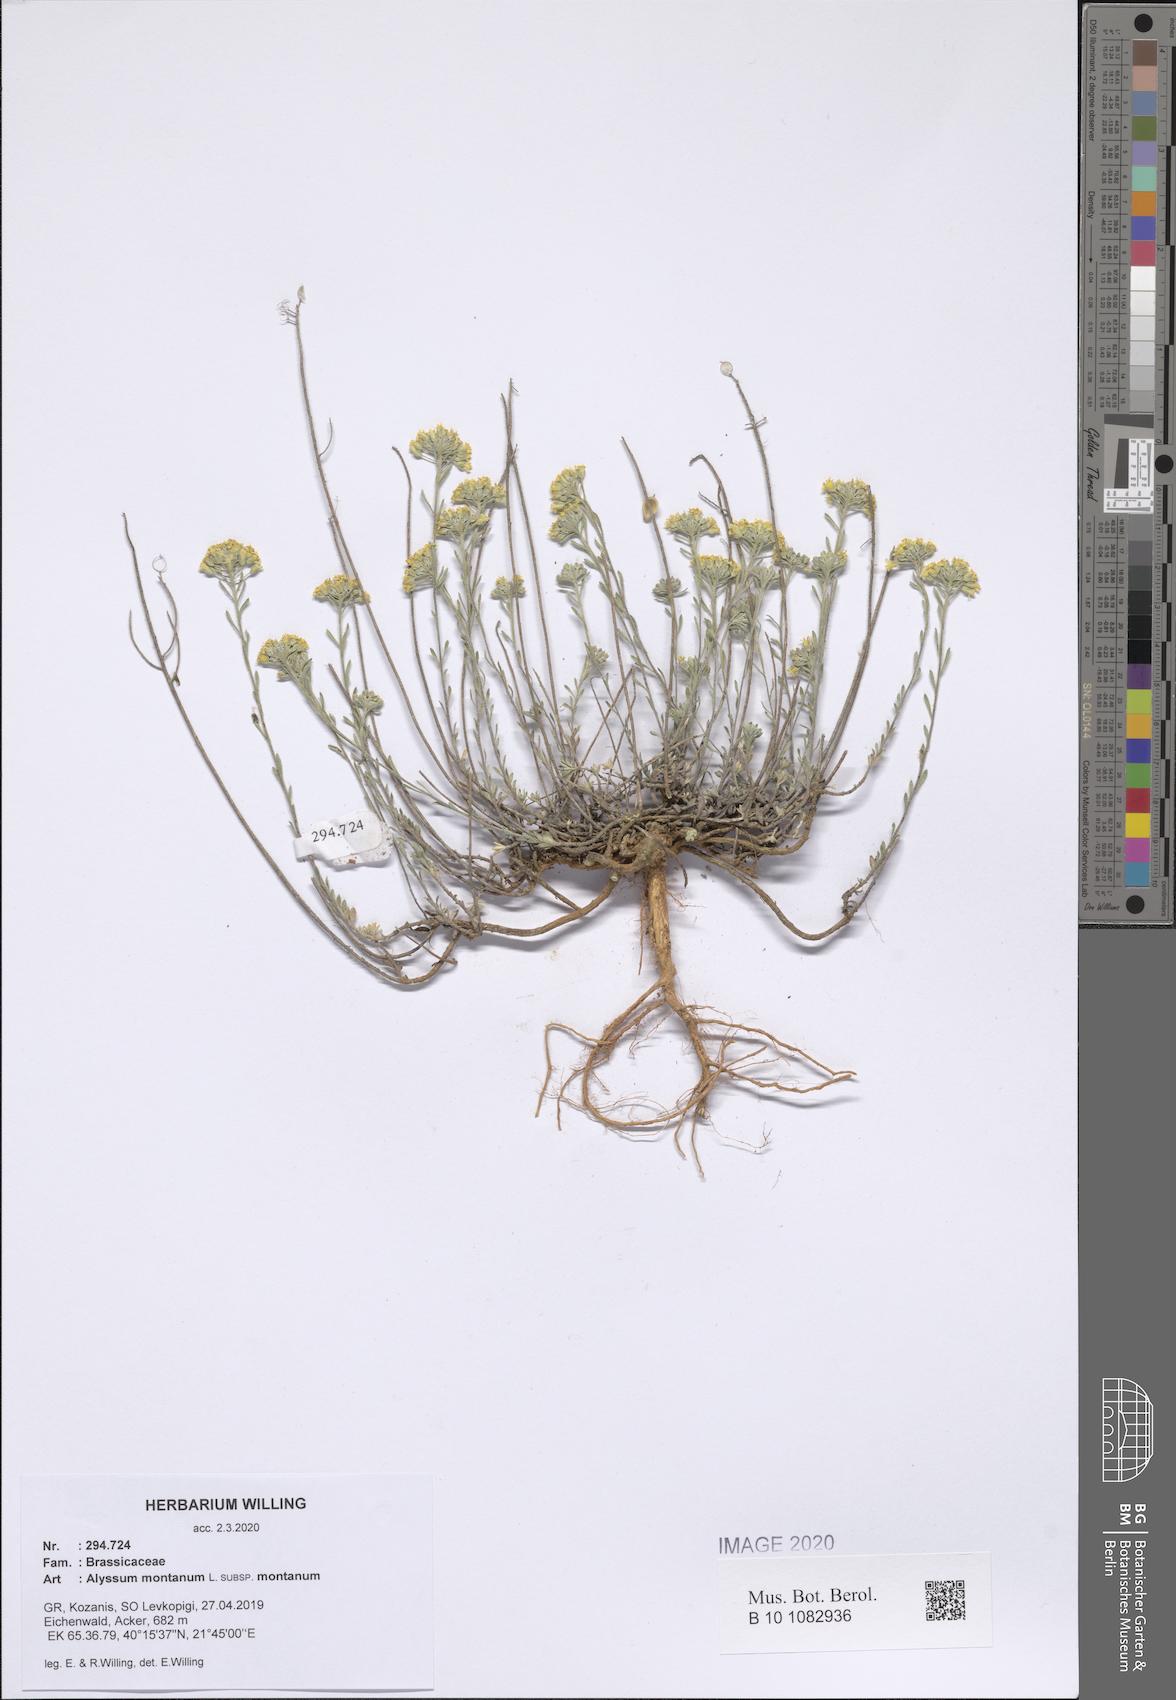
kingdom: Plantae
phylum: Tracheophyta
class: Magnoliopsida
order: Brassicales
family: Brassicaceae
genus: Alyssum
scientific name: Alyssum montanum
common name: Mountain alison
